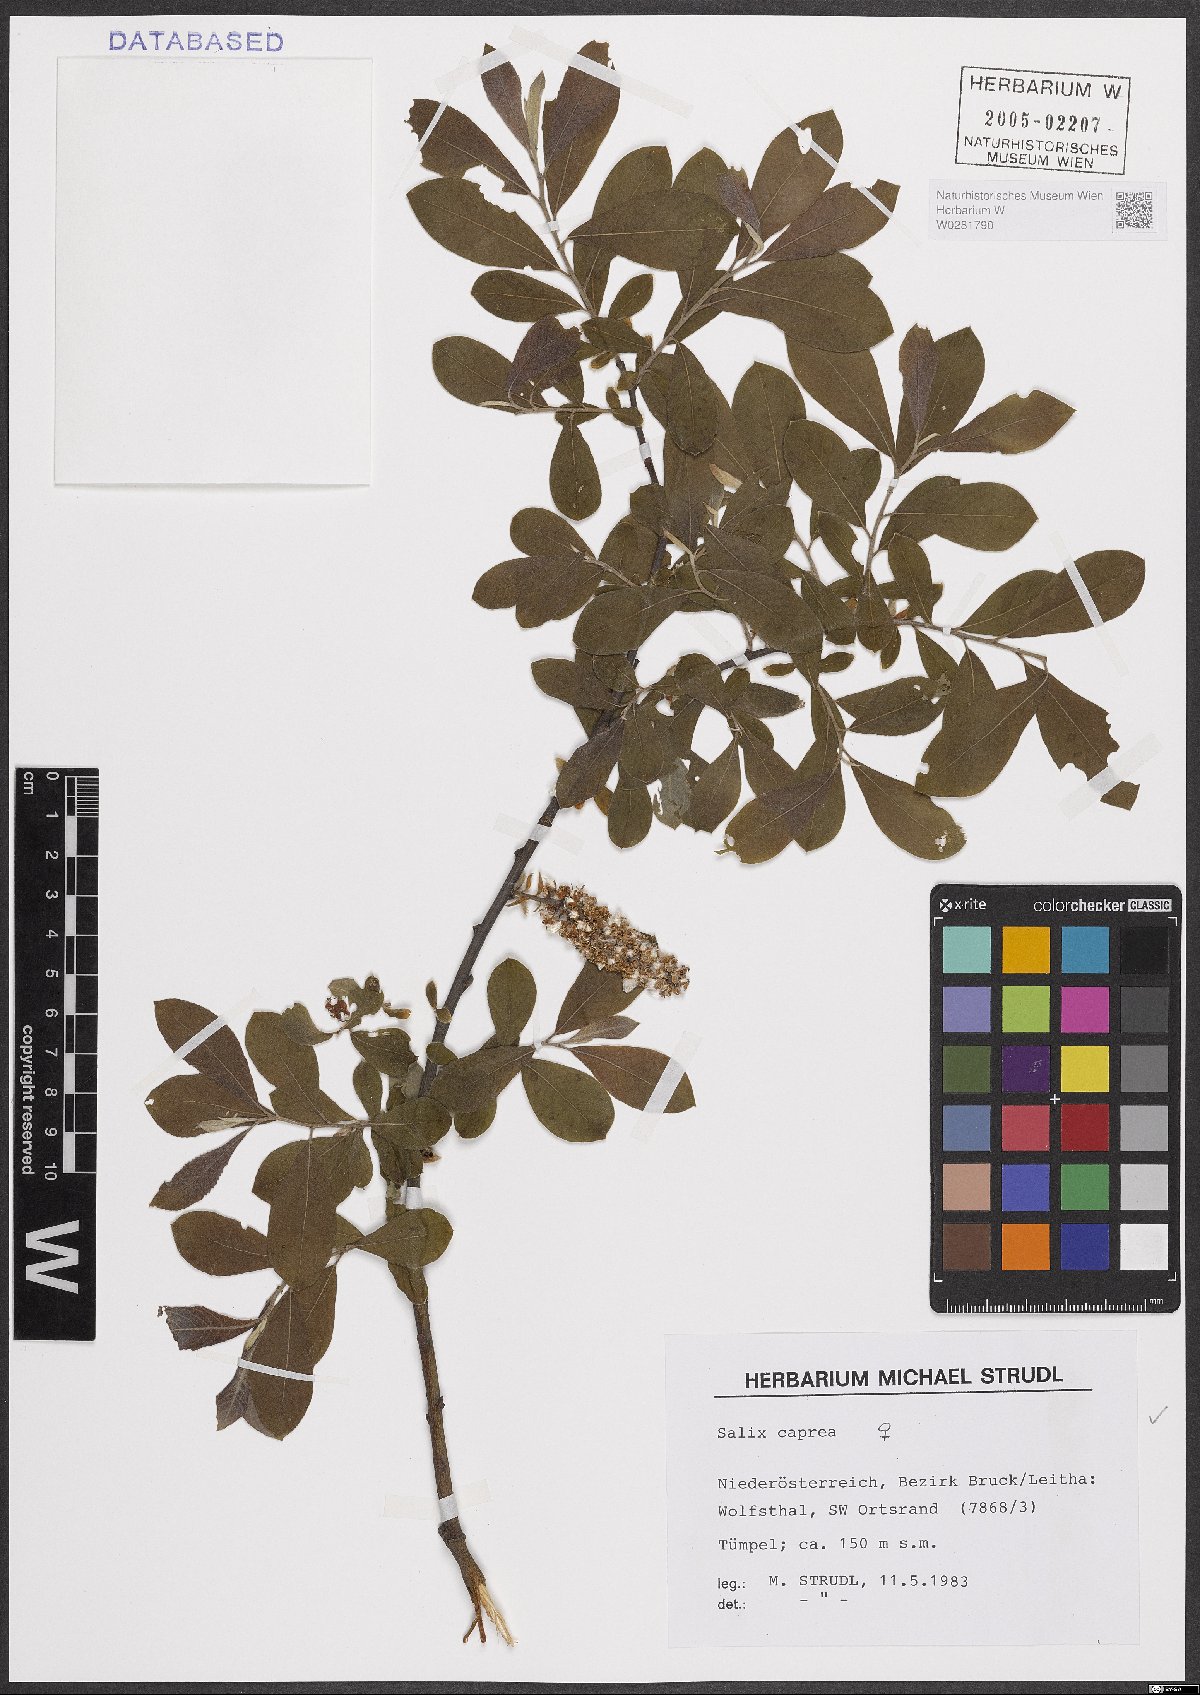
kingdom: Plantae
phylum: Tracheophyta
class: Magnoliopsida
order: Malpighiales
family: Salicaceae
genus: Salix
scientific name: Salix caprea
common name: Goat willow
